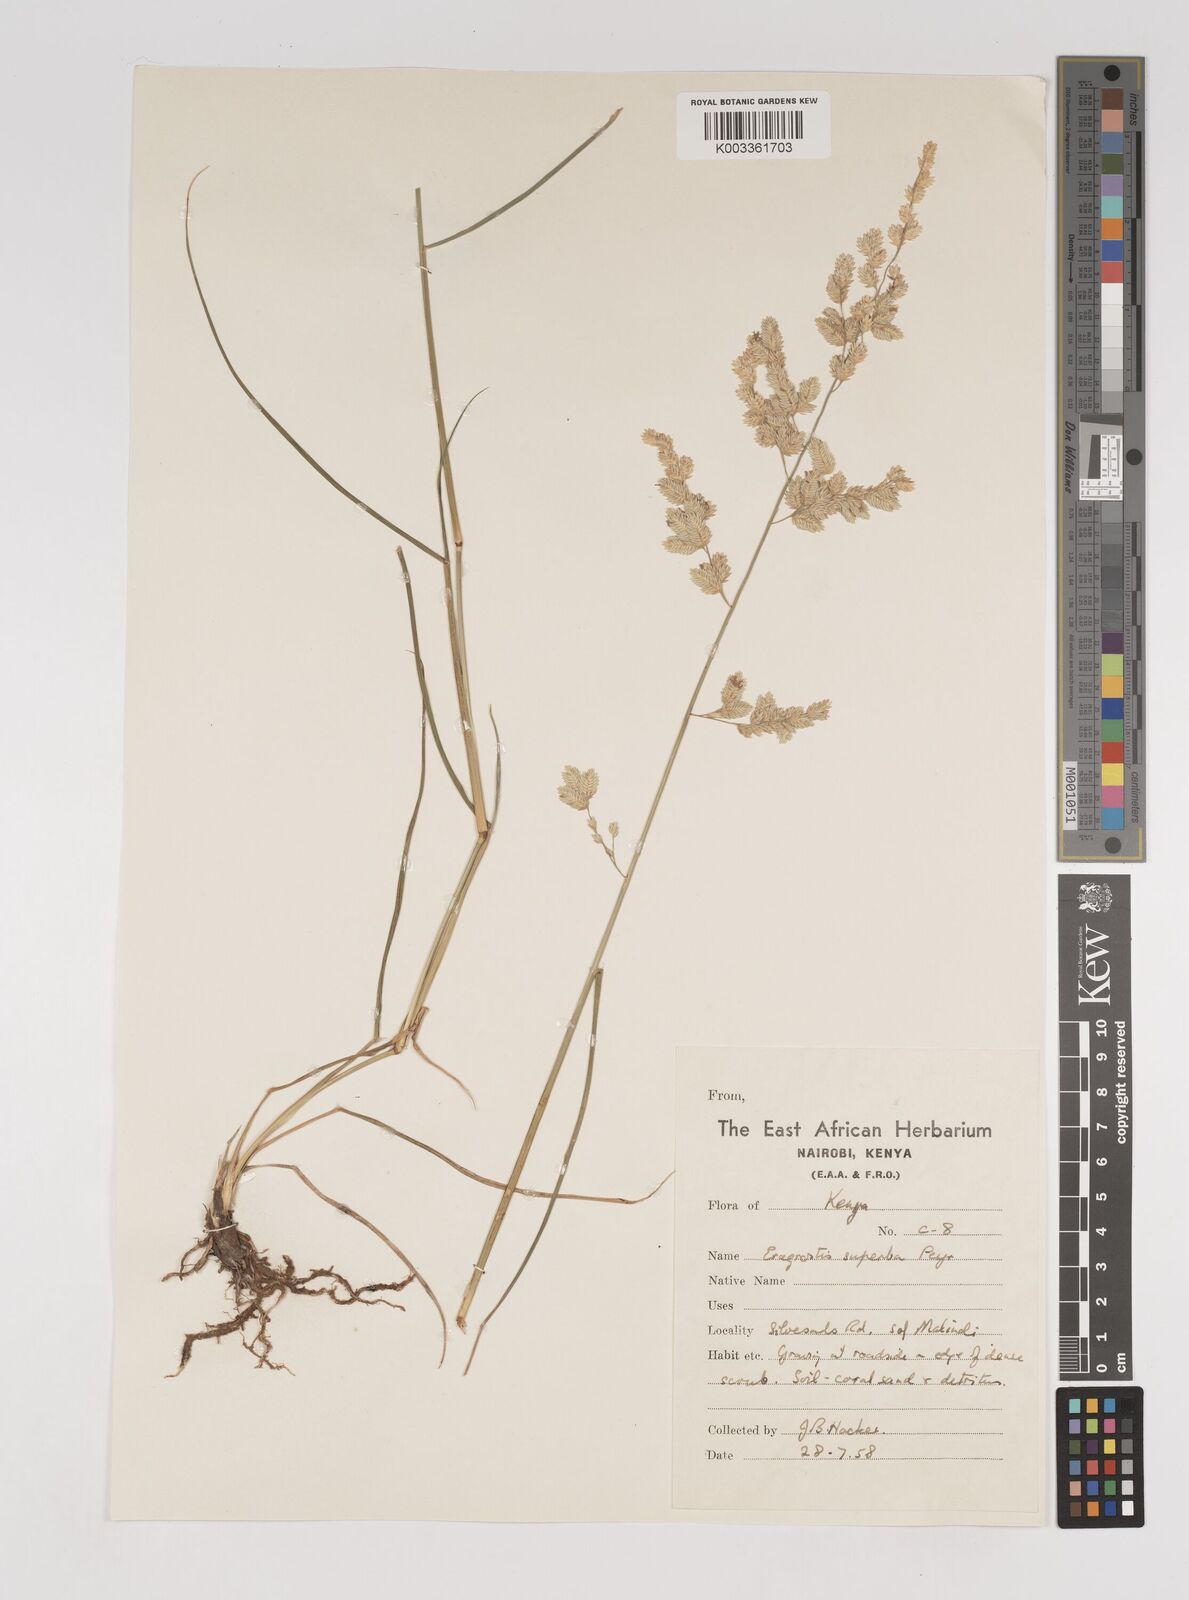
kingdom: Plantae
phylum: Tracheophyta
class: Liliopsida
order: Poales
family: Poaceae
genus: Eragrostis
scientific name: Eragrostis superba
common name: Wilman lovegrass
